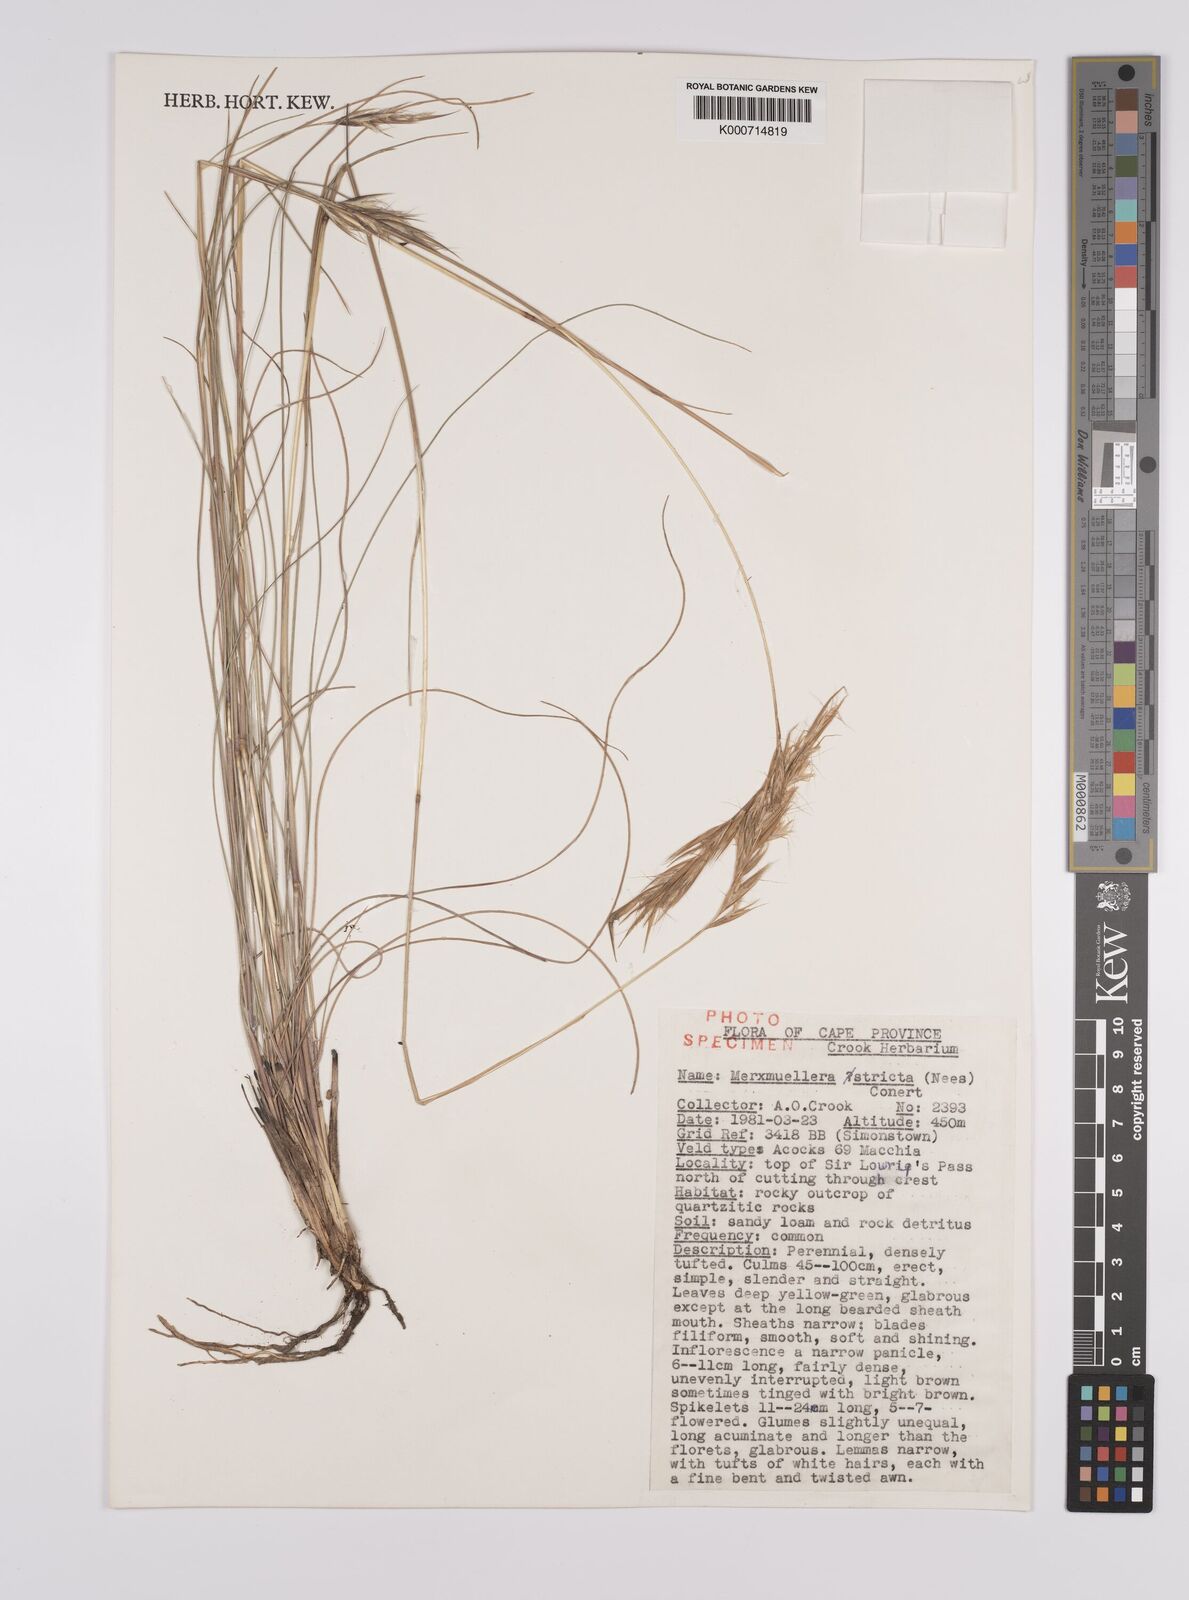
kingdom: Plantae
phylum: Tracheophyta
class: Liliopsida
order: Poales
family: Poaceae
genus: Rytidosperma
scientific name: Rytidosperma
